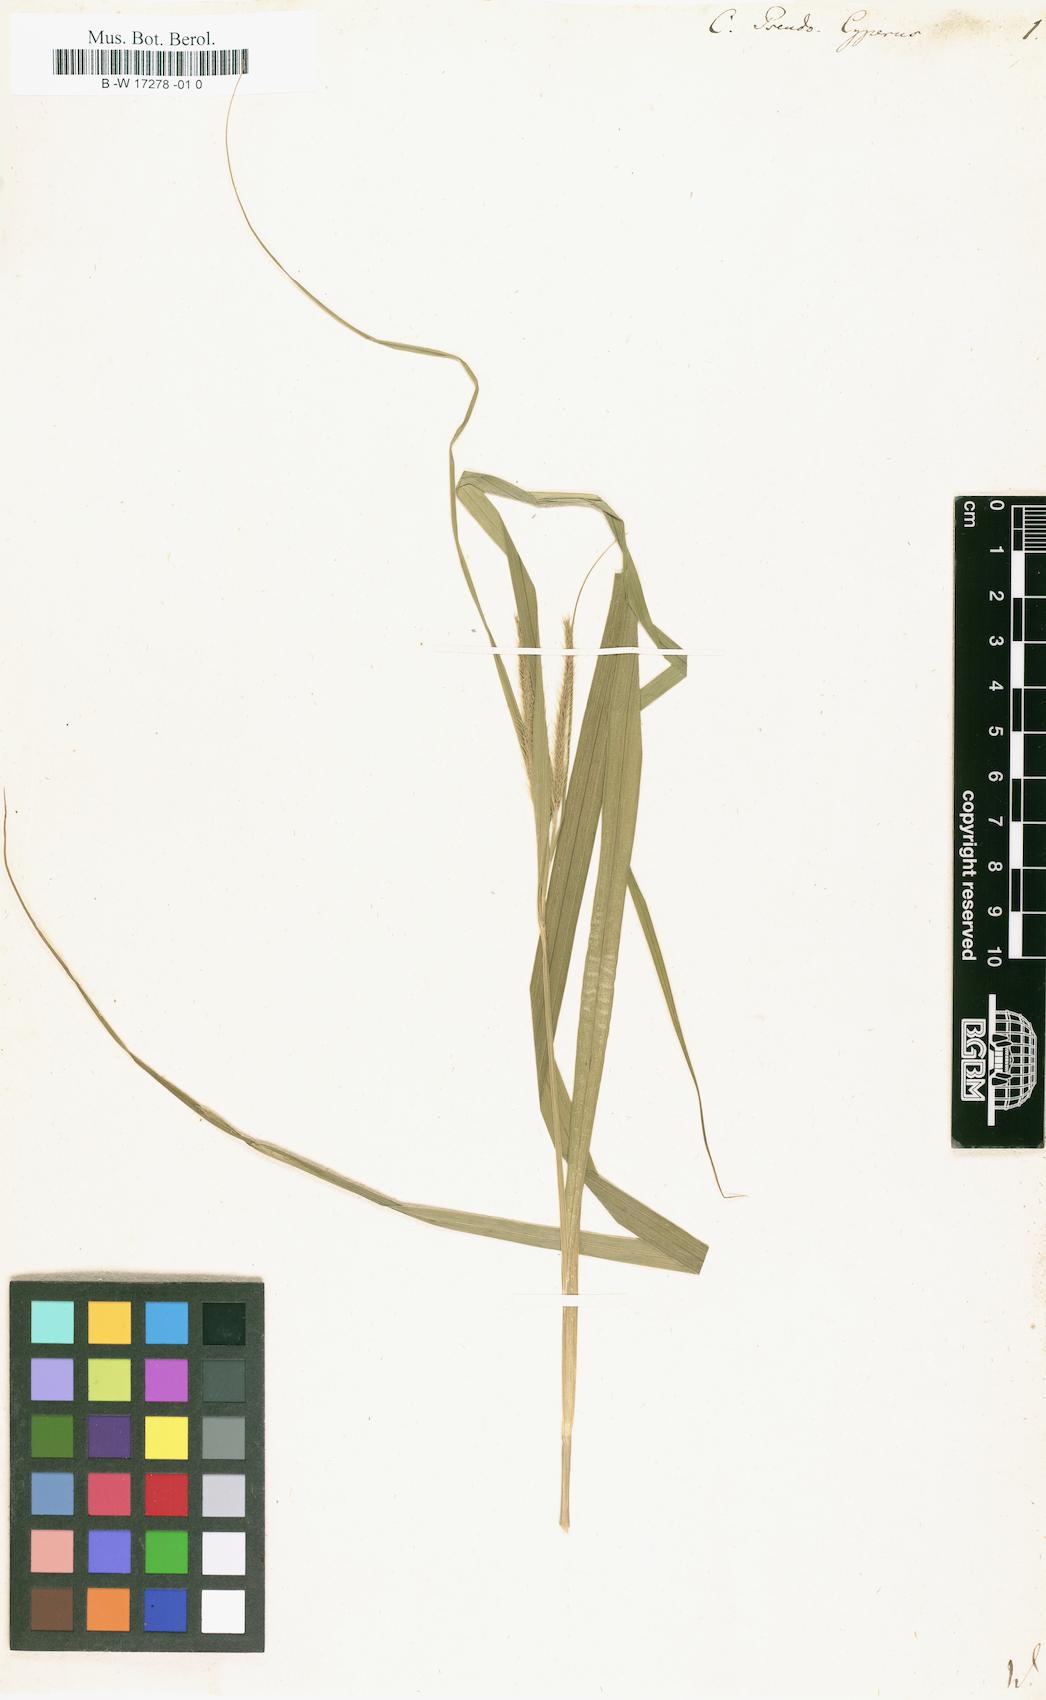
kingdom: Plantae
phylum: Tracheophyta
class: Liliopsida
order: Poales
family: Cyperaceae
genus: Carex
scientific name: Carex pseudocyperus
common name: Cyperus sedge
